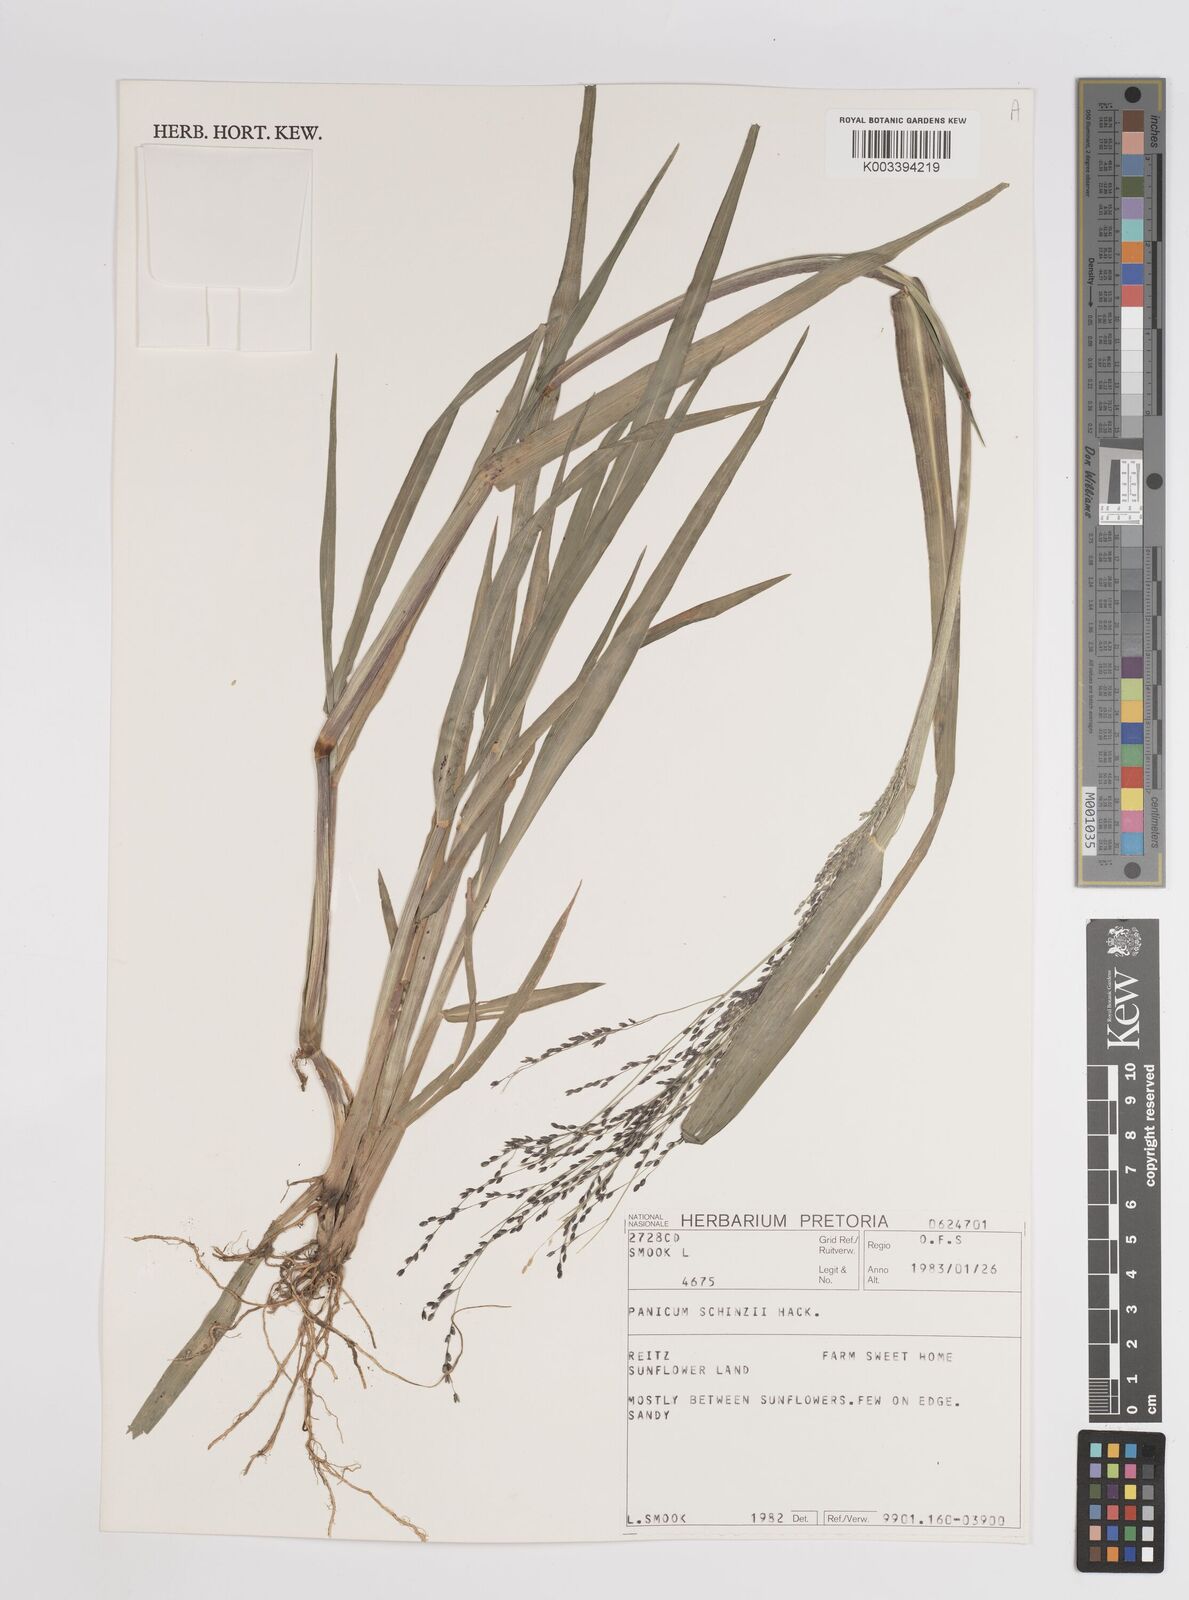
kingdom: Plantae
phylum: Tracheophyta
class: Liliopsida
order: Poales
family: Poaceae
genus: Panicum
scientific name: Panicum schinzii
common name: Sweet grass
